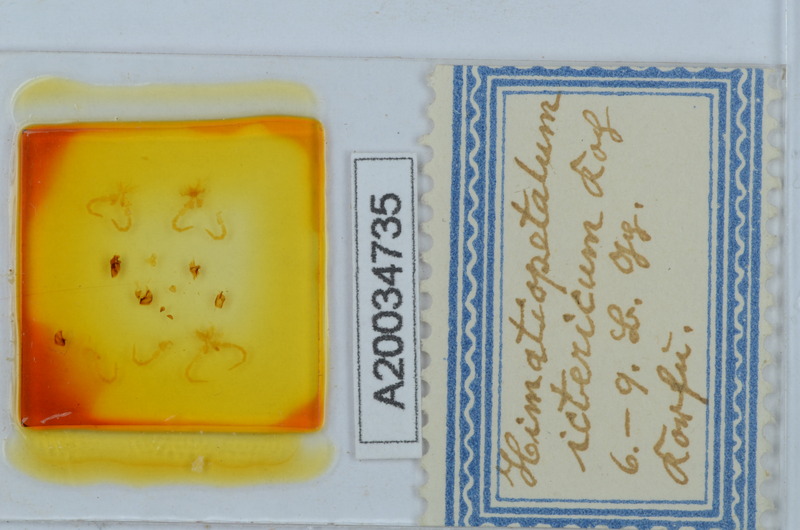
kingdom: Animalia
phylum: Arthropoda
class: Diplopoda
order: Callipodida
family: Schizopetalidae
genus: Himatiopetalum
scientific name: Himatiopetalum ictericum
